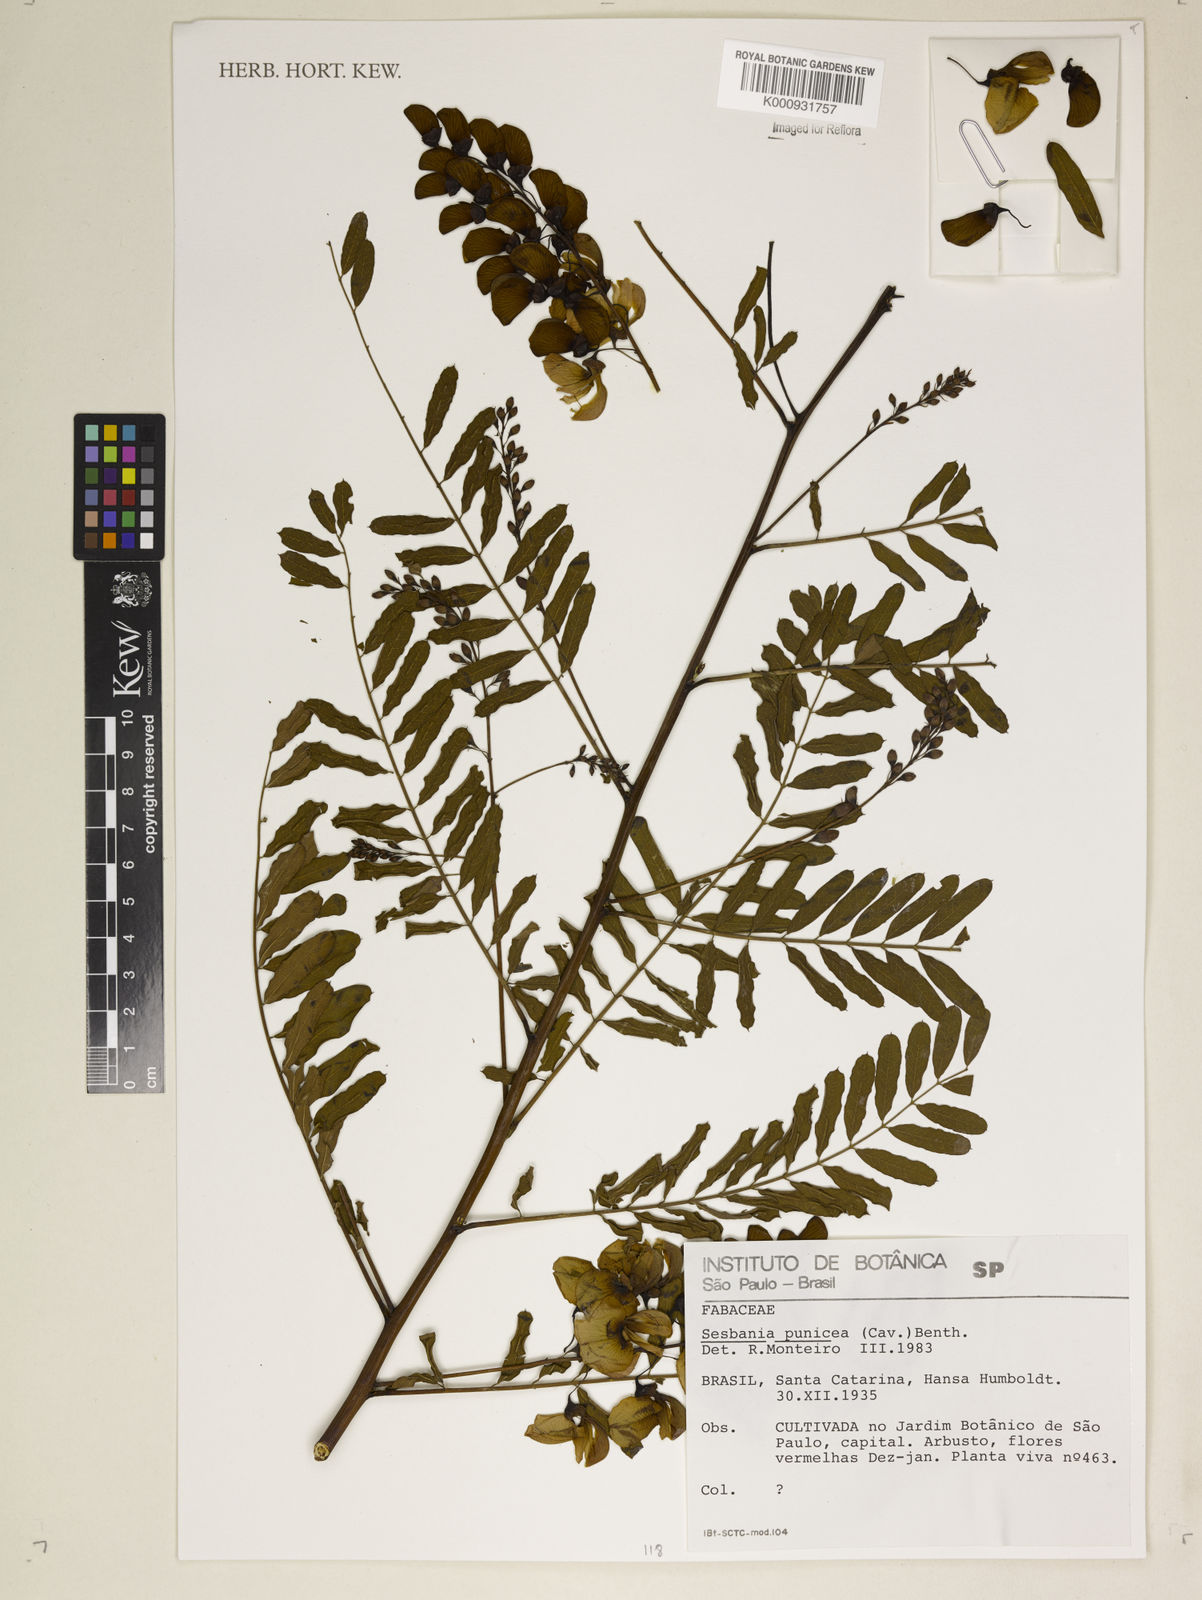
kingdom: Plantae
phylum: Tracheophyta
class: Magnoliopsida
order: Fabales
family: Fabaceae
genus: Sesbania
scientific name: Sesbania punicea
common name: Rattlebox
